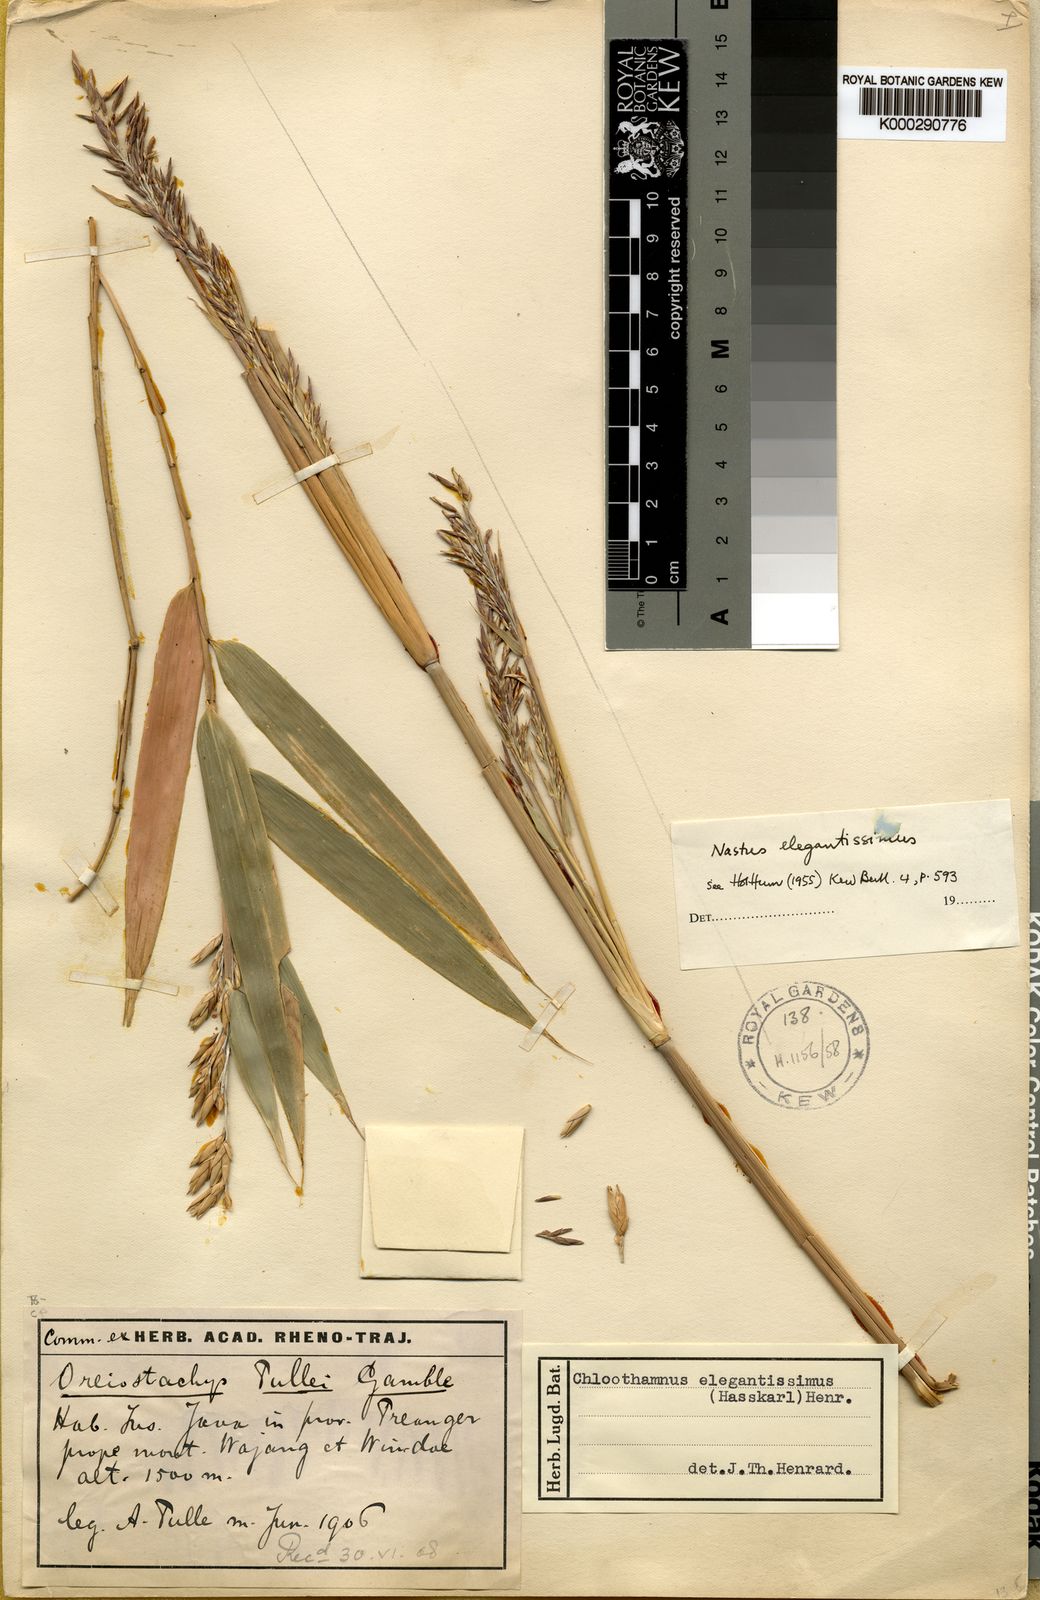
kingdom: Plantae
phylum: Tracheophyta
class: Liliopsida
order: Poales
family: Poaceae
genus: Chloothamnus
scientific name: Chloothamnus elegantissimus
